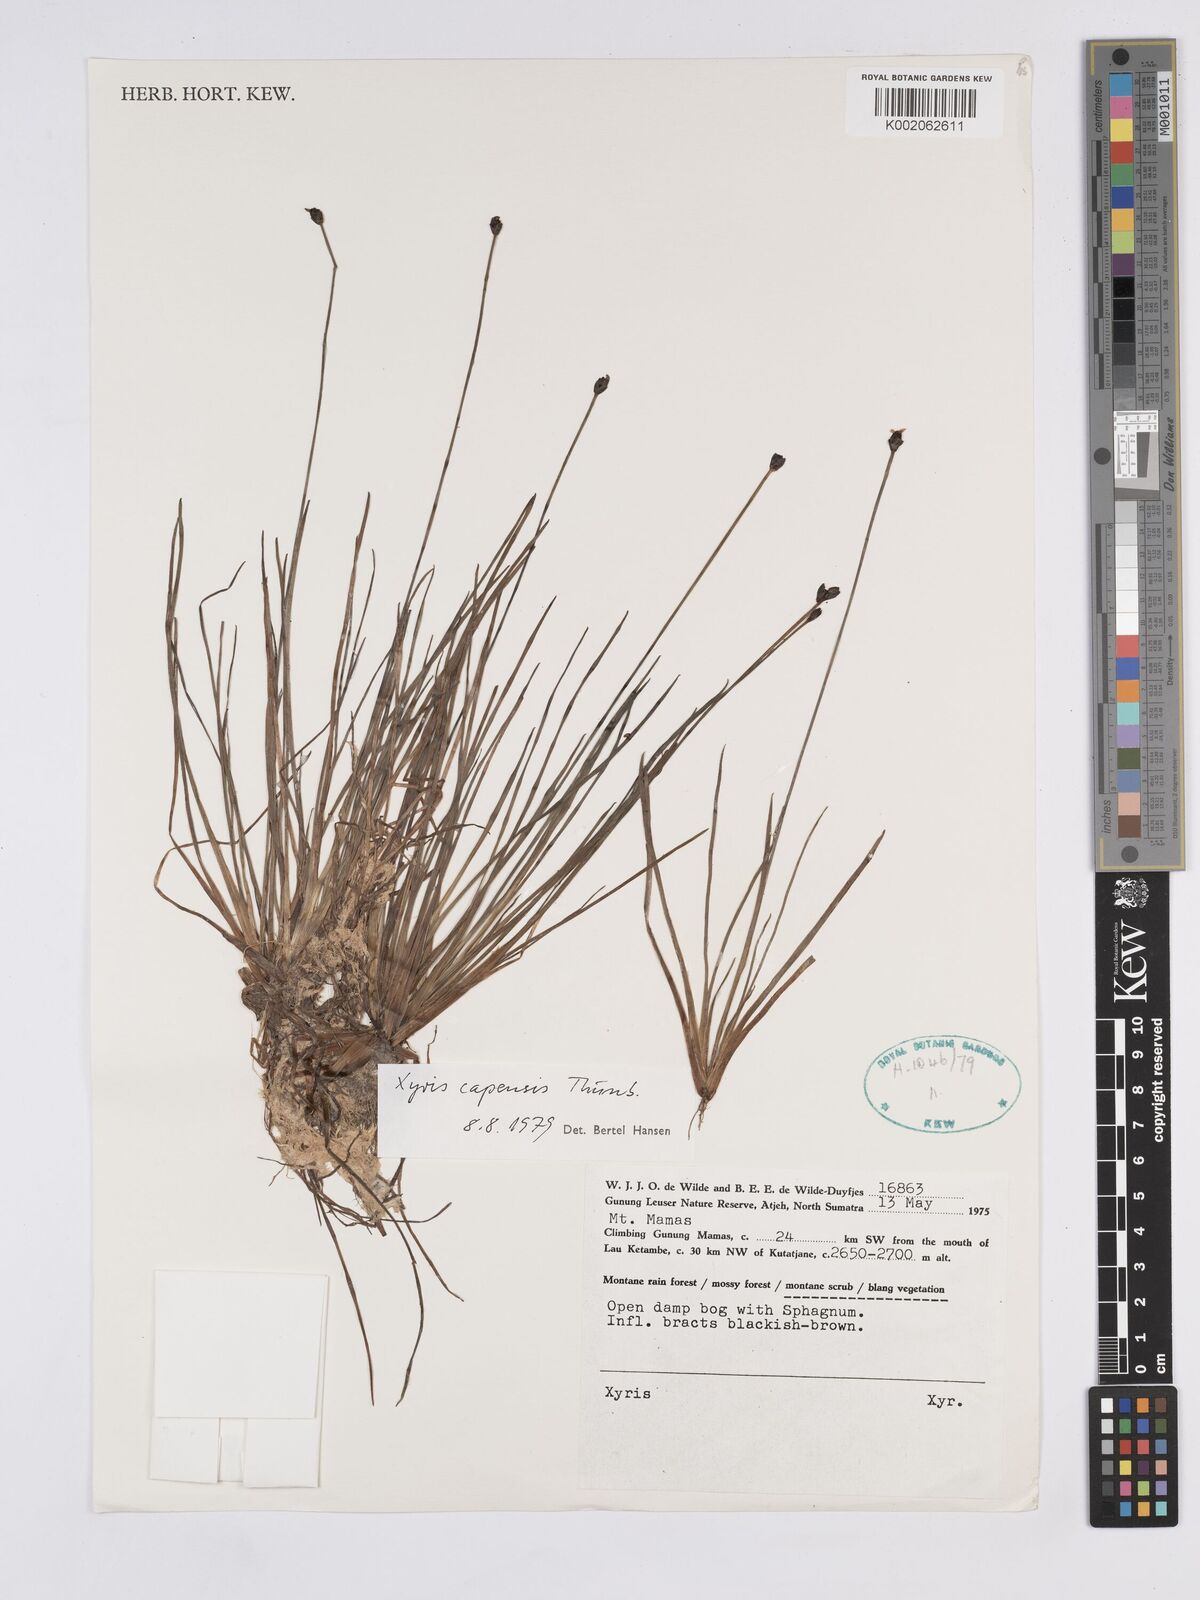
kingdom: Plantae
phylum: Tracheophyta
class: Liliopsida
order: Poales
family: Xyridaceae
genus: Xyris
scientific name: Xyris capensis
